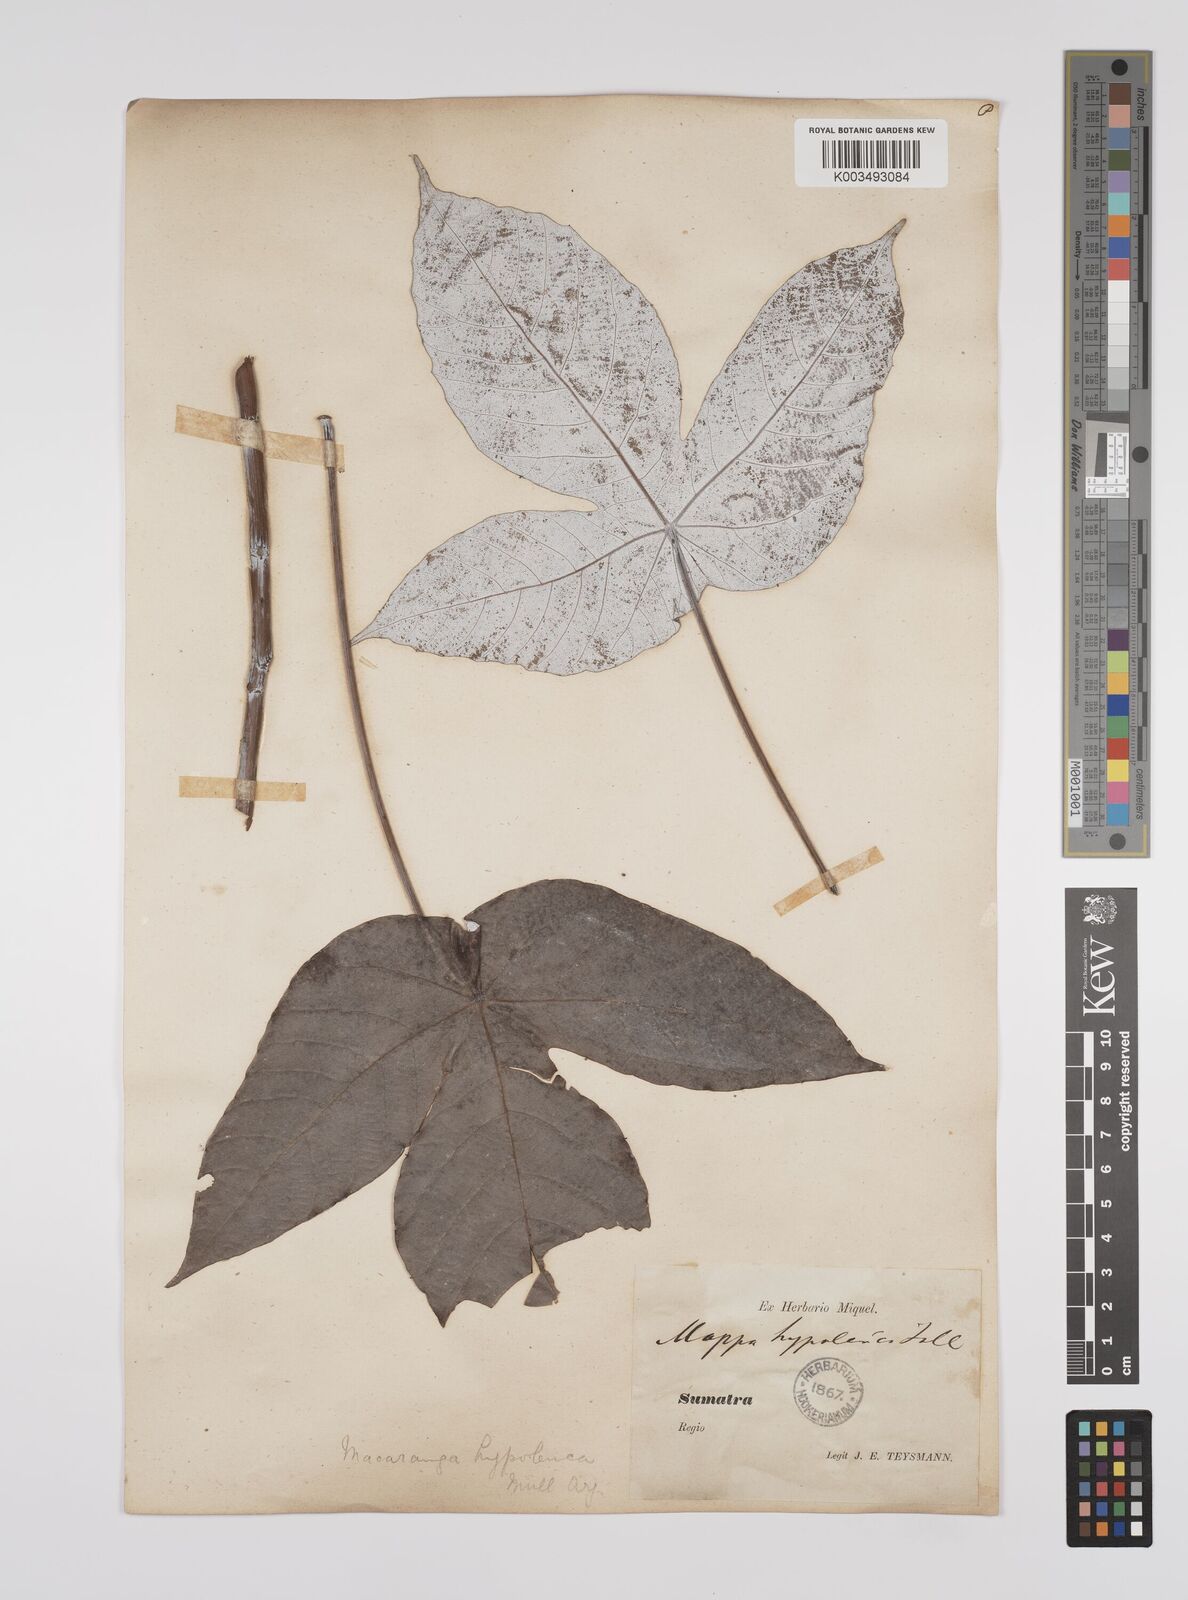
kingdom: Plantae
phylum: Tracheophyta
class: Magnoliopsida
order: Malpighiales
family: Euphorbiaceae
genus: Macaranga
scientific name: Macaranga hypoleuca
